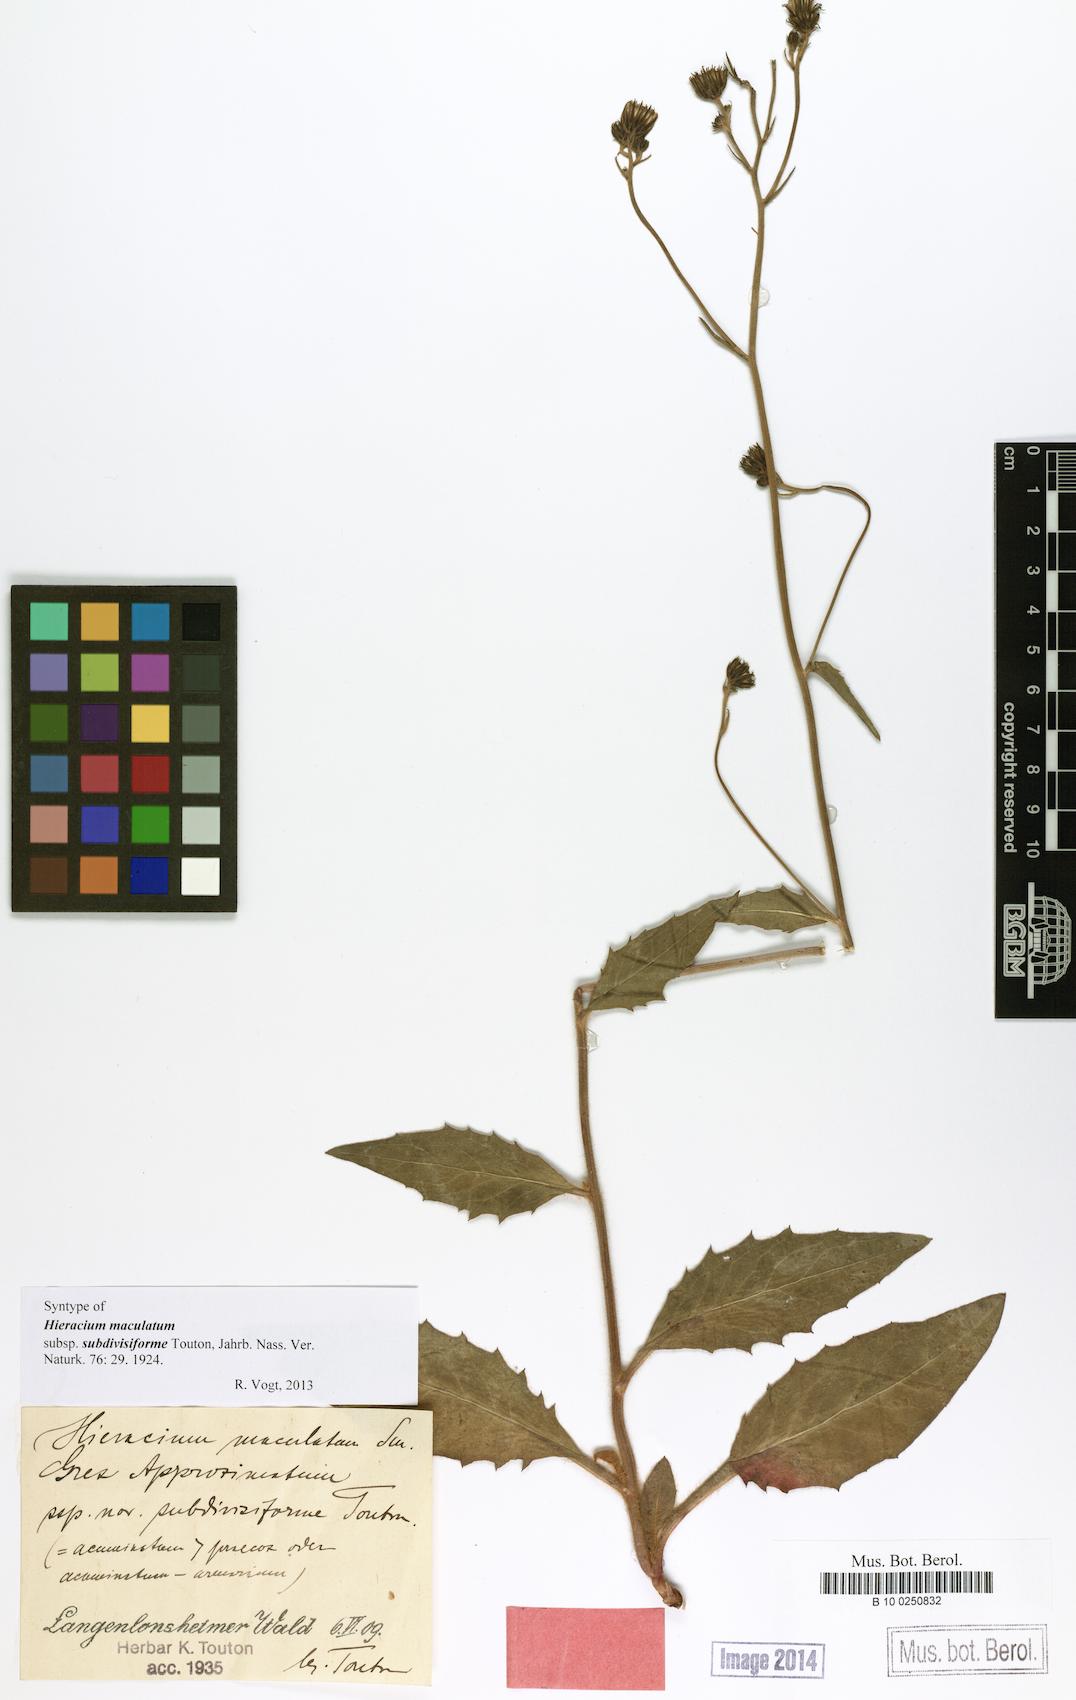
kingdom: Plantae
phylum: Tracheophyta
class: Magnoliopsida
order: Asterales
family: Asteraceae
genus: Hieracium
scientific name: Hieracium maculatum
